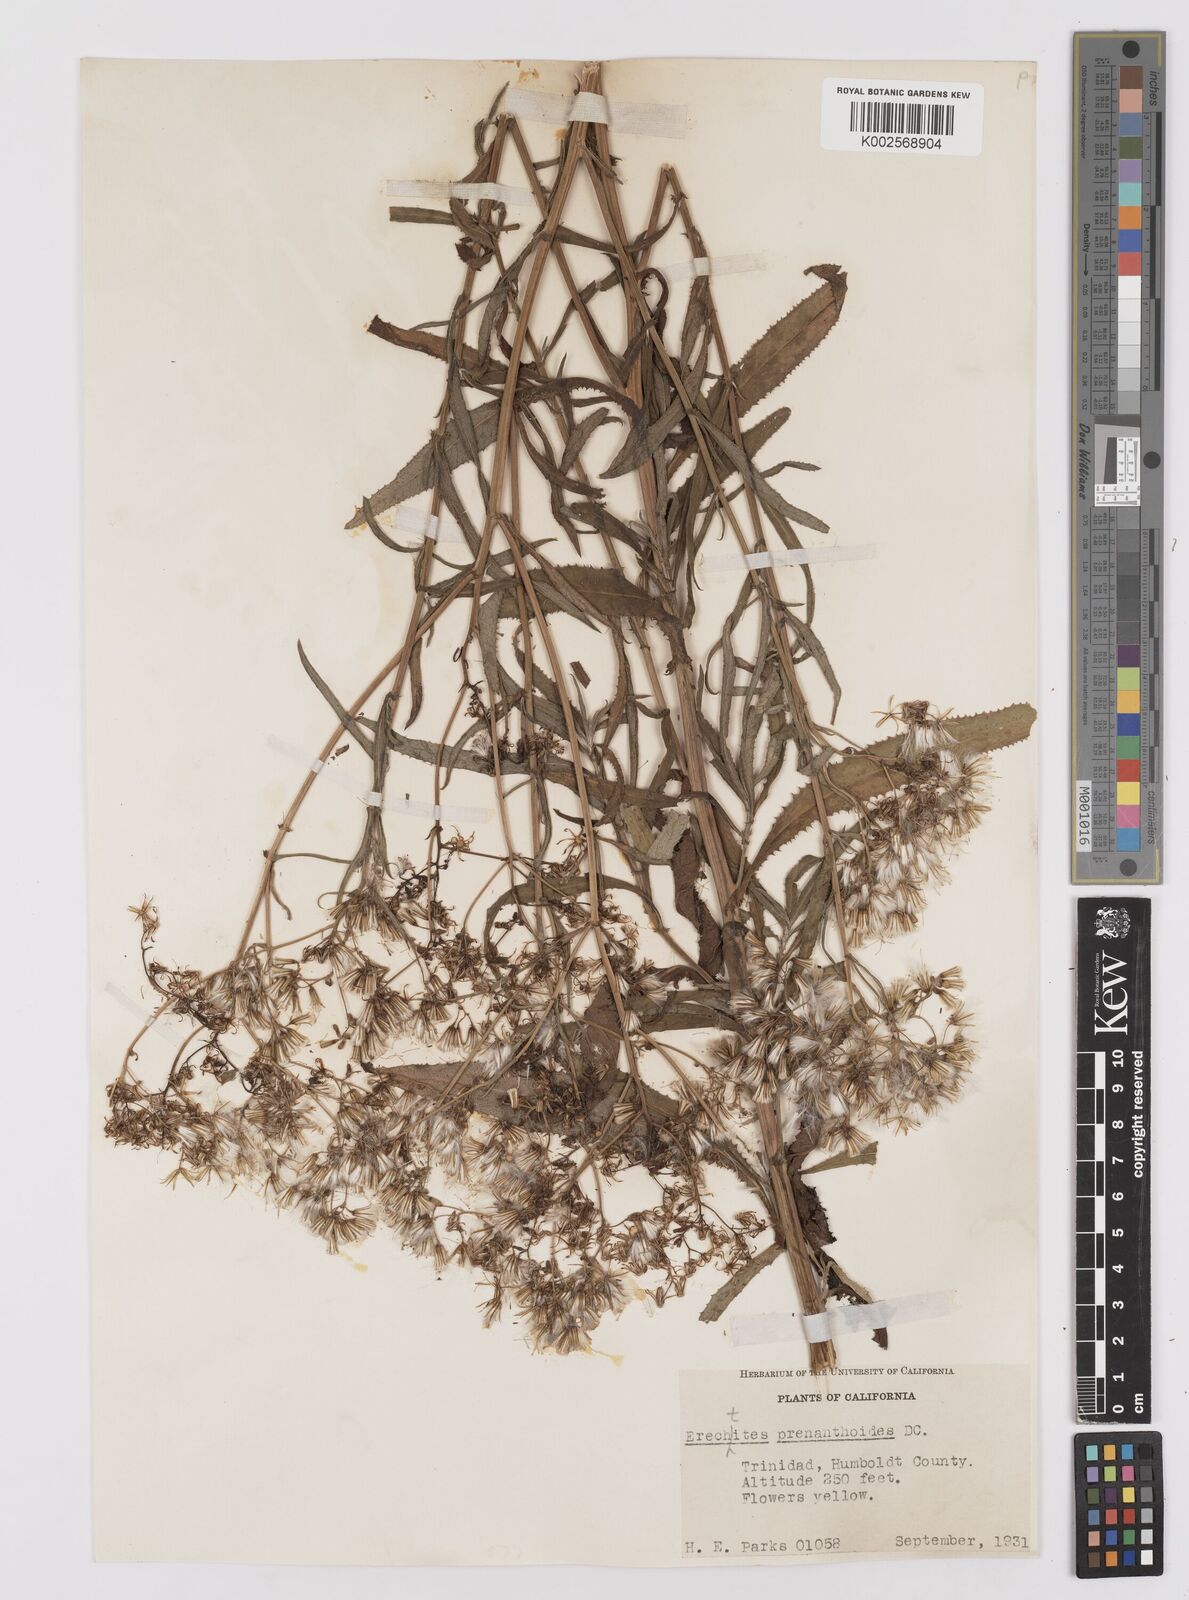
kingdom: Plantae
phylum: Tracheophyta
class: Magnoliopsida
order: Asterales
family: Asteraceae
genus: Senecio
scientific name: Senecio minimus
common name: Toothed fireweed
